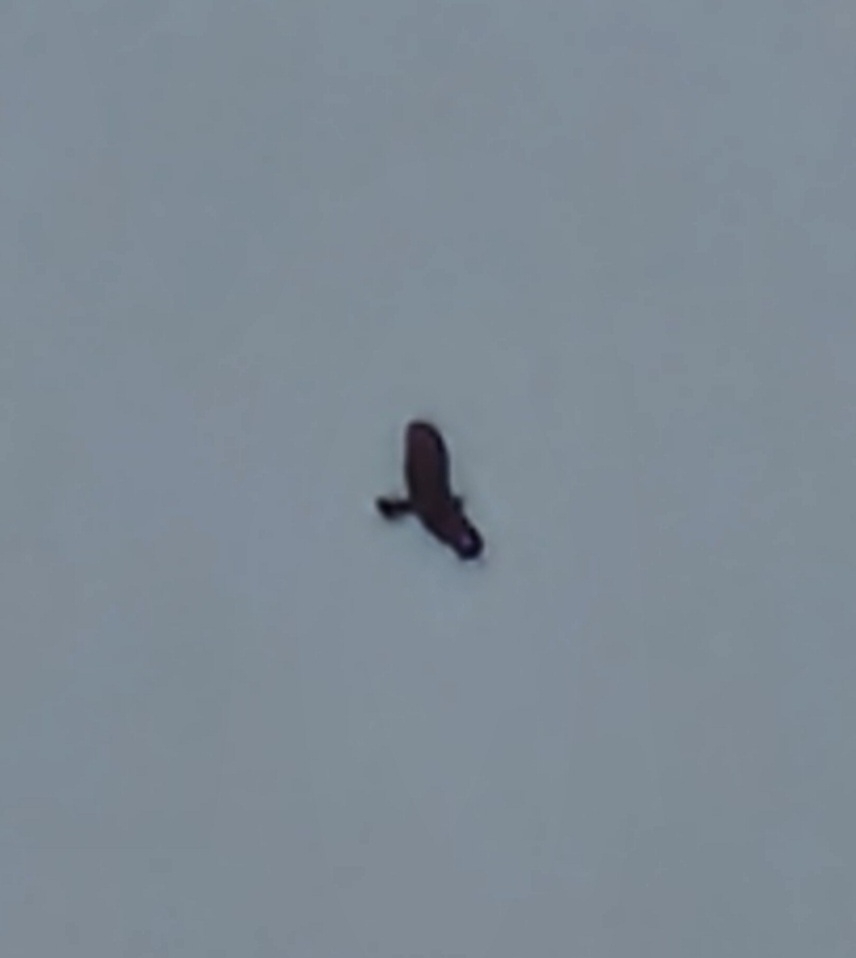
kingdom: Animalia
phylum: Chordata
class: Aves
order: Accipitriformes
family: Accipitridae
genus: Buteo
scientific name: Buteo buteo
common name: Musvåge
